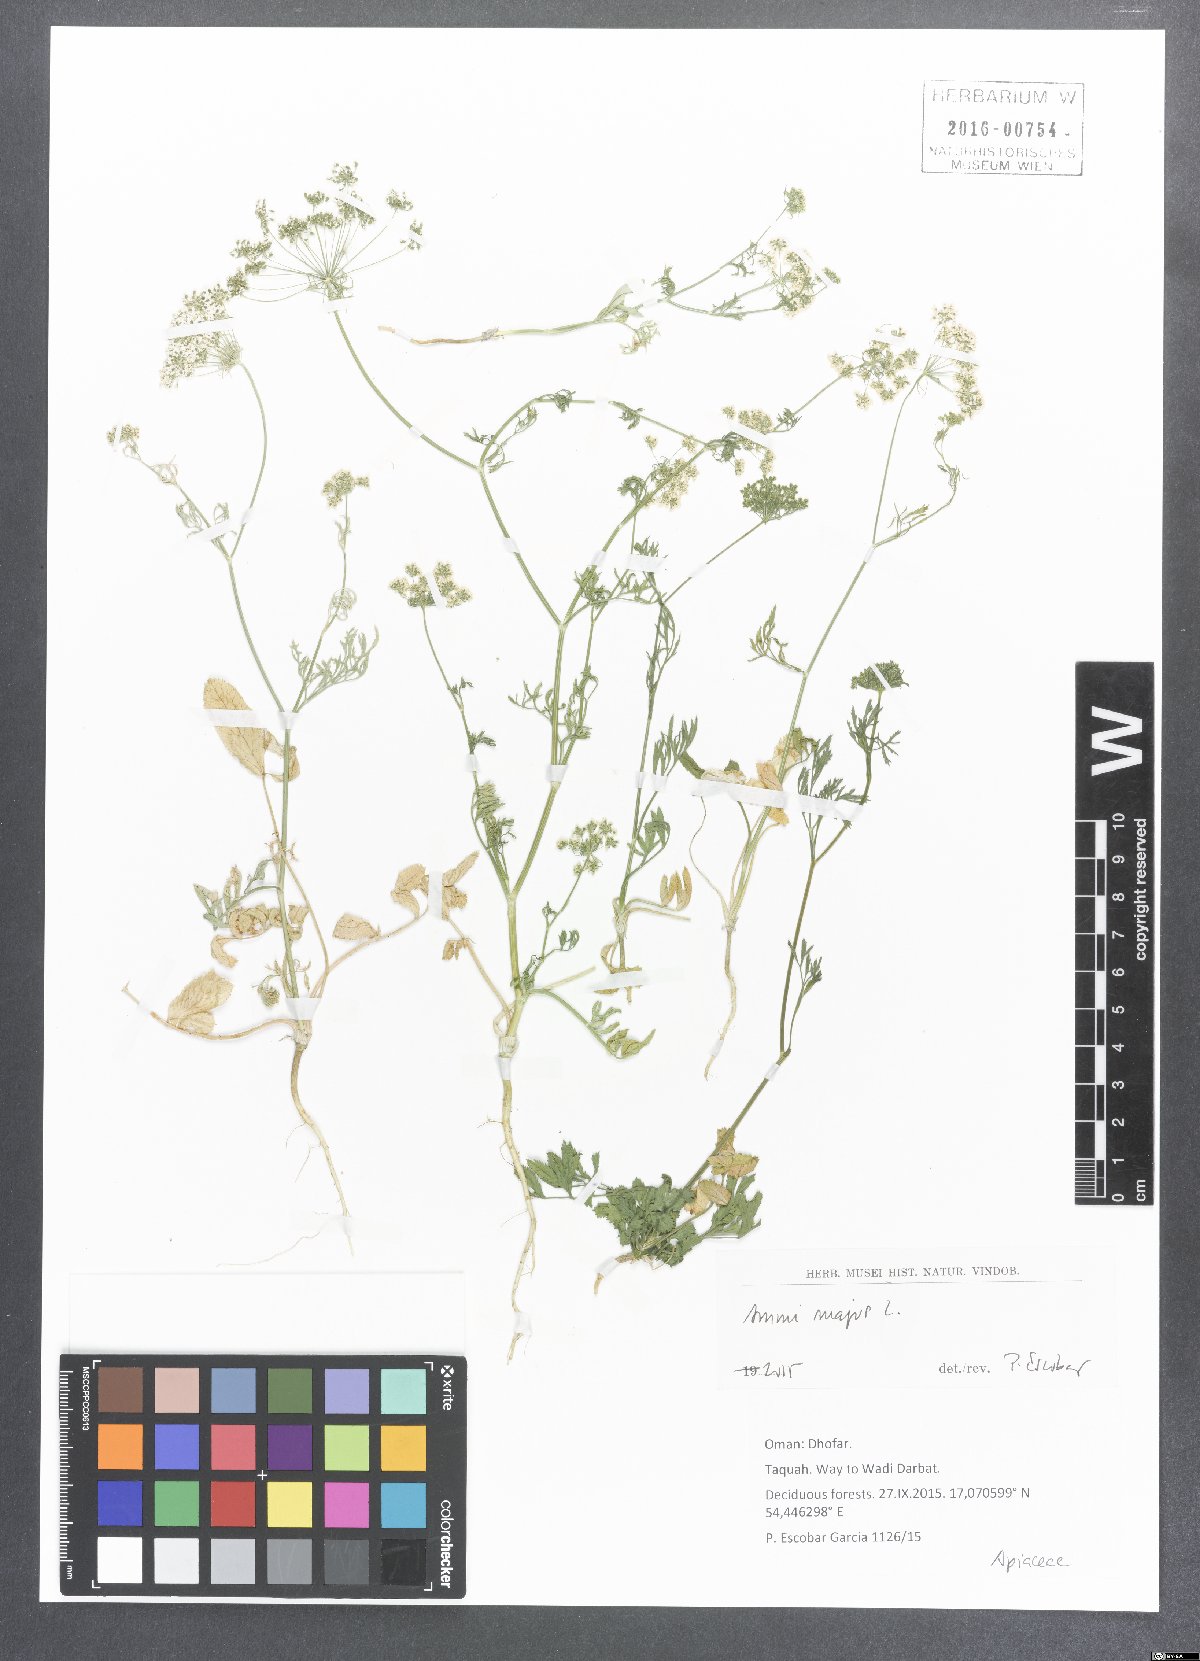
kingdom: Plantae
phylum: Tracheophyta
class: Magnoliopsida
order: Apiales
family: Apiaceae
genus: Ammi
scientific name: Ammi majus
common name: Bullwort
